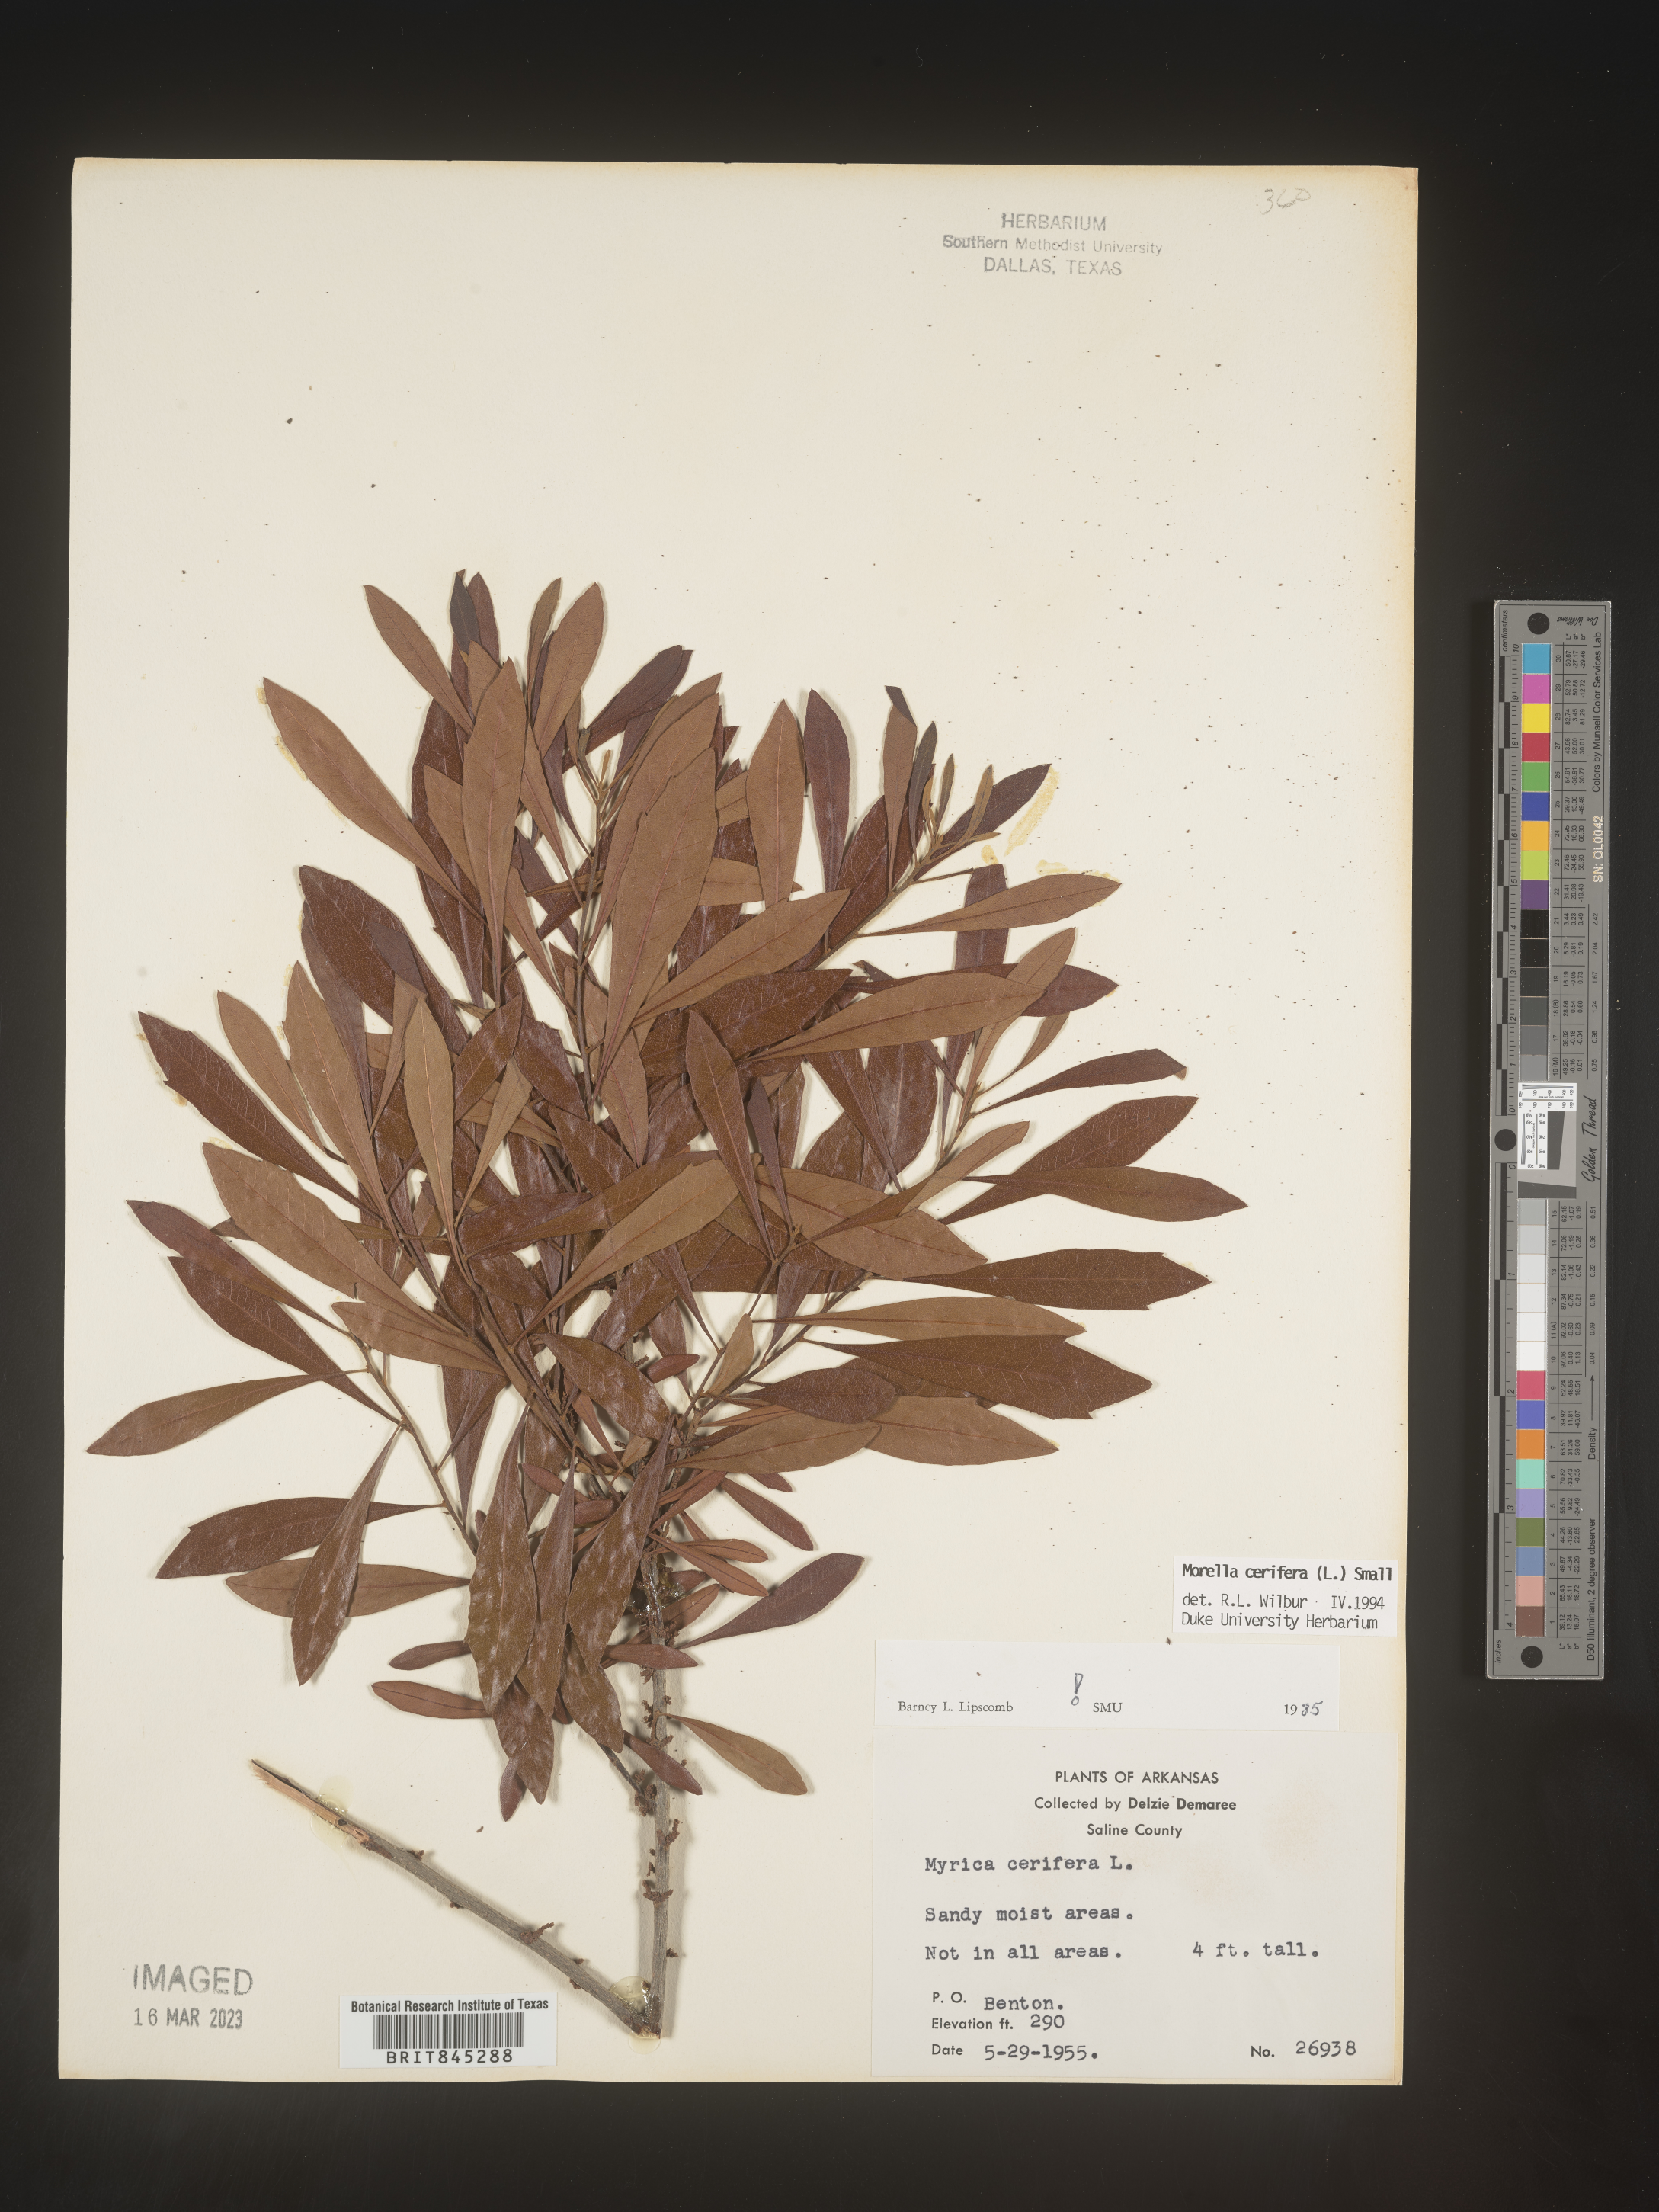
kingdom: Plantae
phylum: Tracheophyta
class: Magnoliopsida
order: Fagales
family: Myricaceae
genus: Morella
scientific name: Morella cerifera
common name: Wax myrtle
